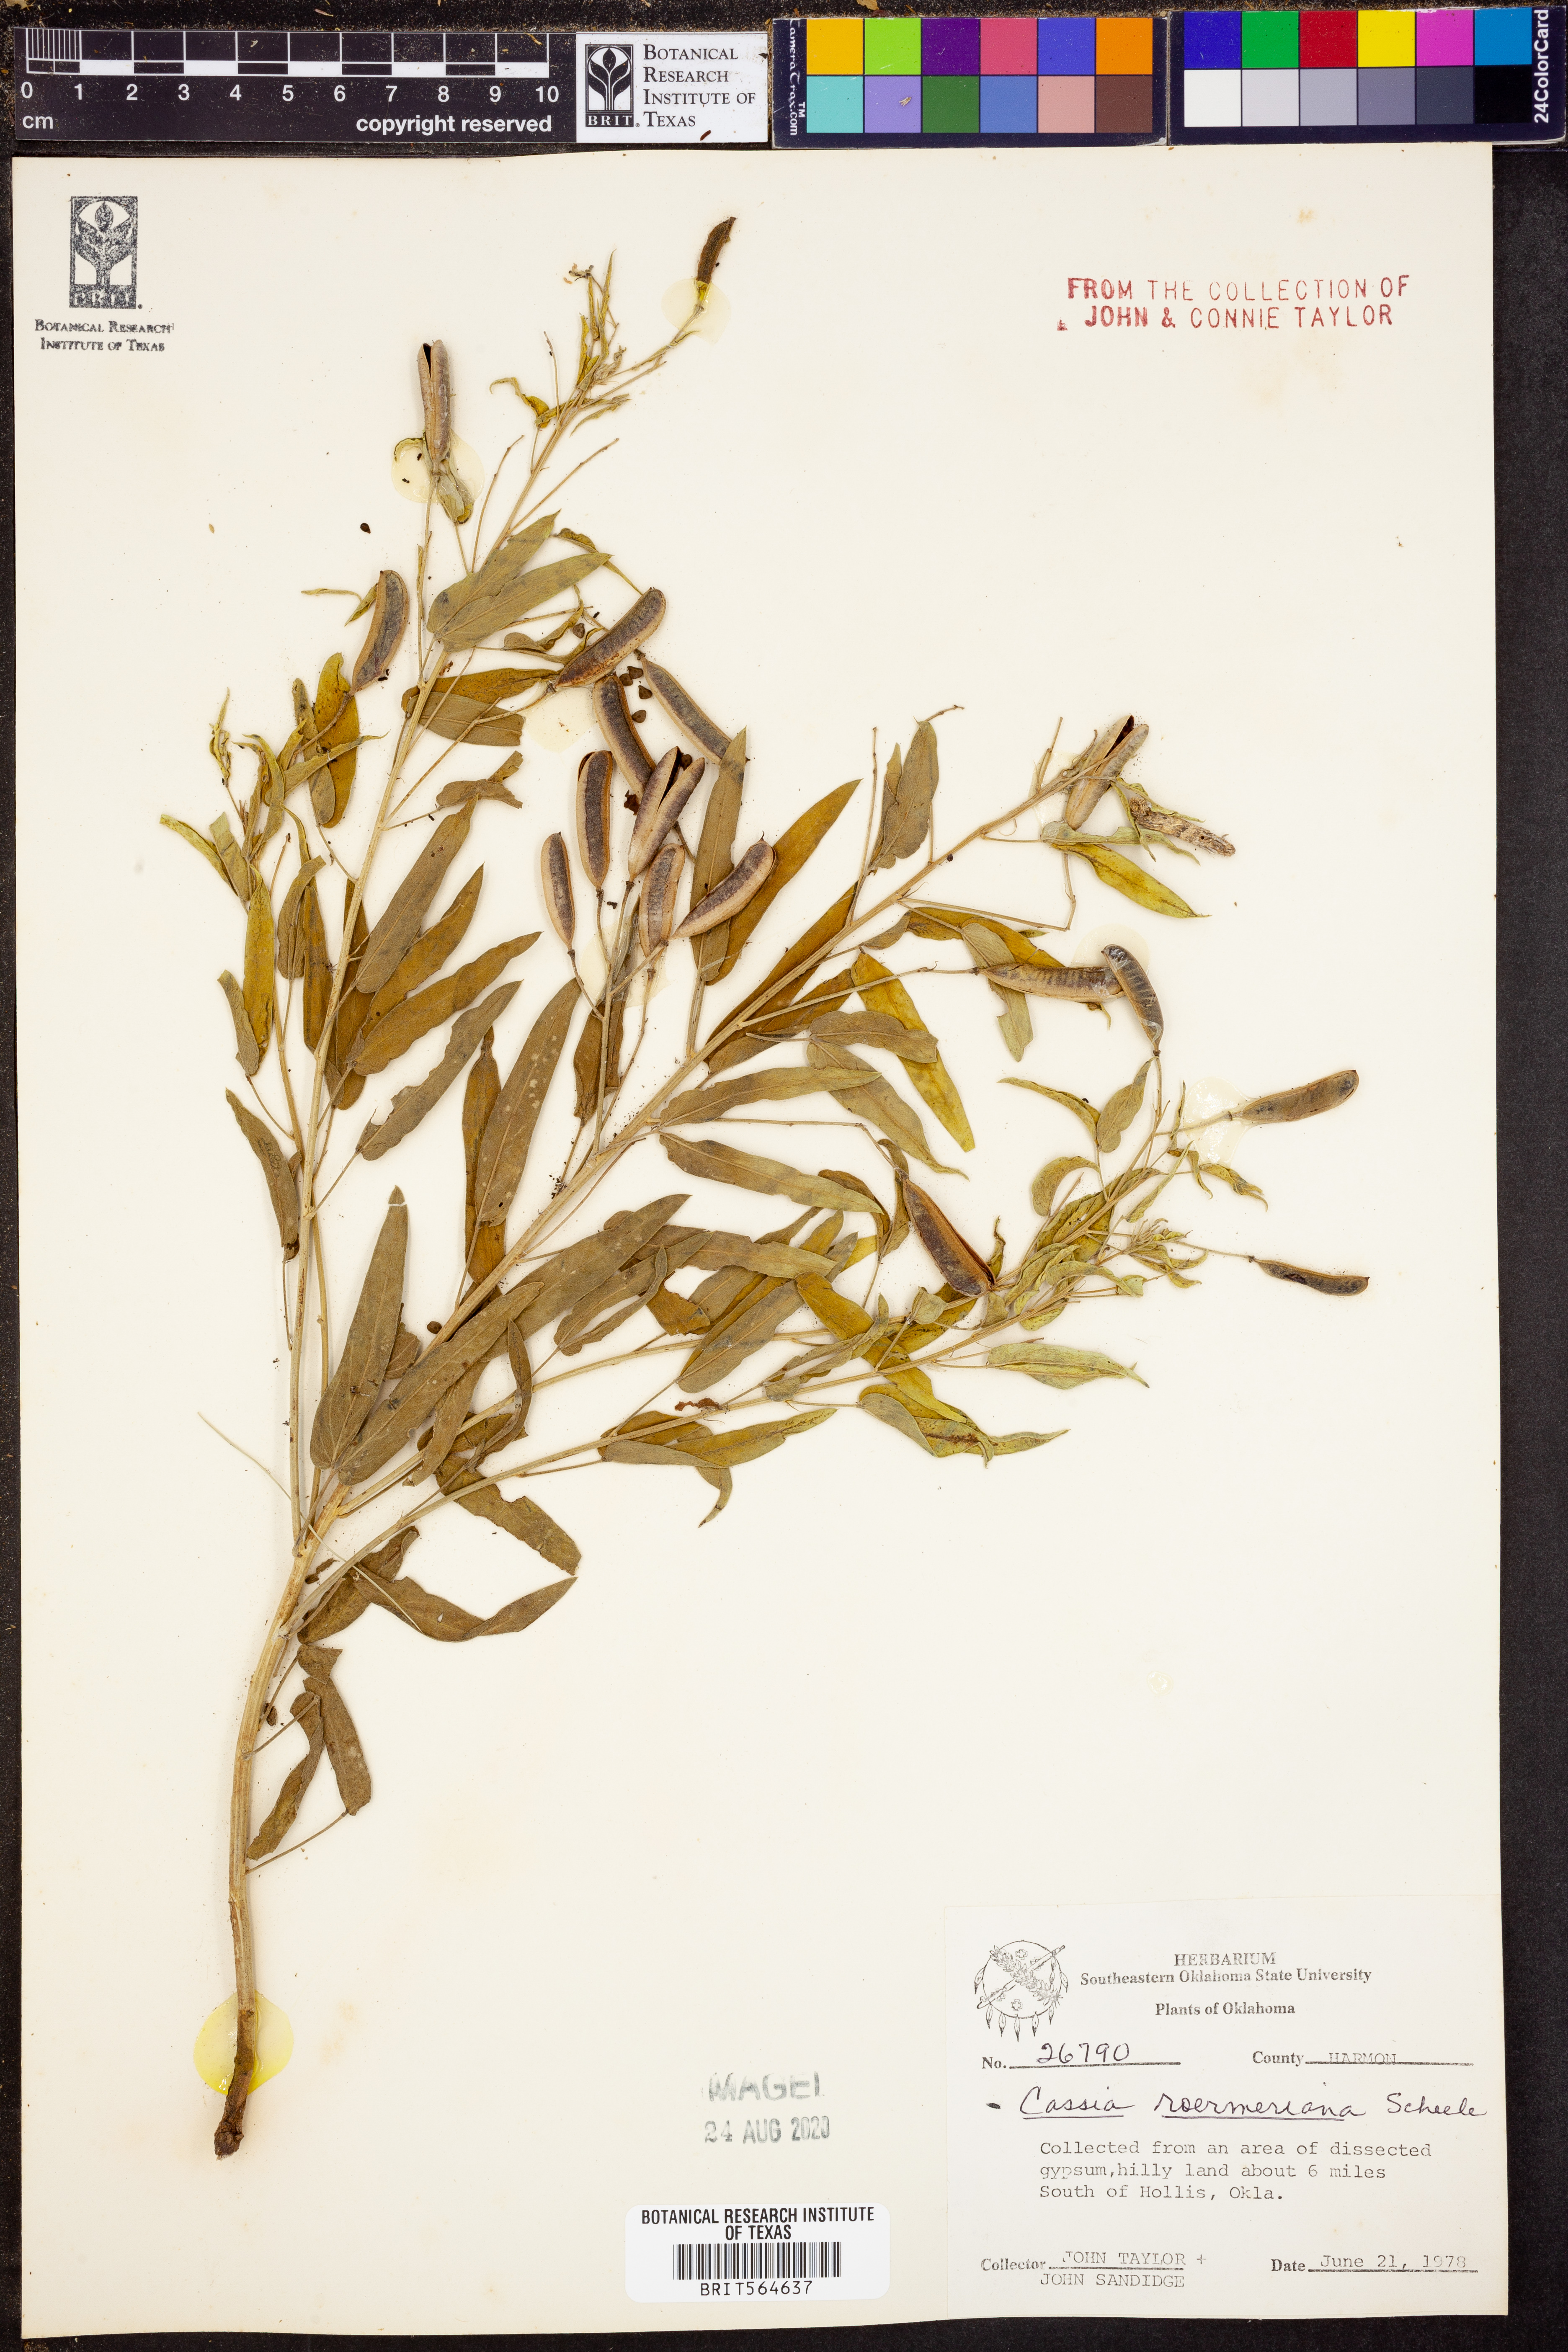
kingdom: Plantae
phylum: Tracheophyta
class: Magnoliopsida
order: Fabales
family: Fabaceae
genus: Senna
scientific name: Senna roemeriana
